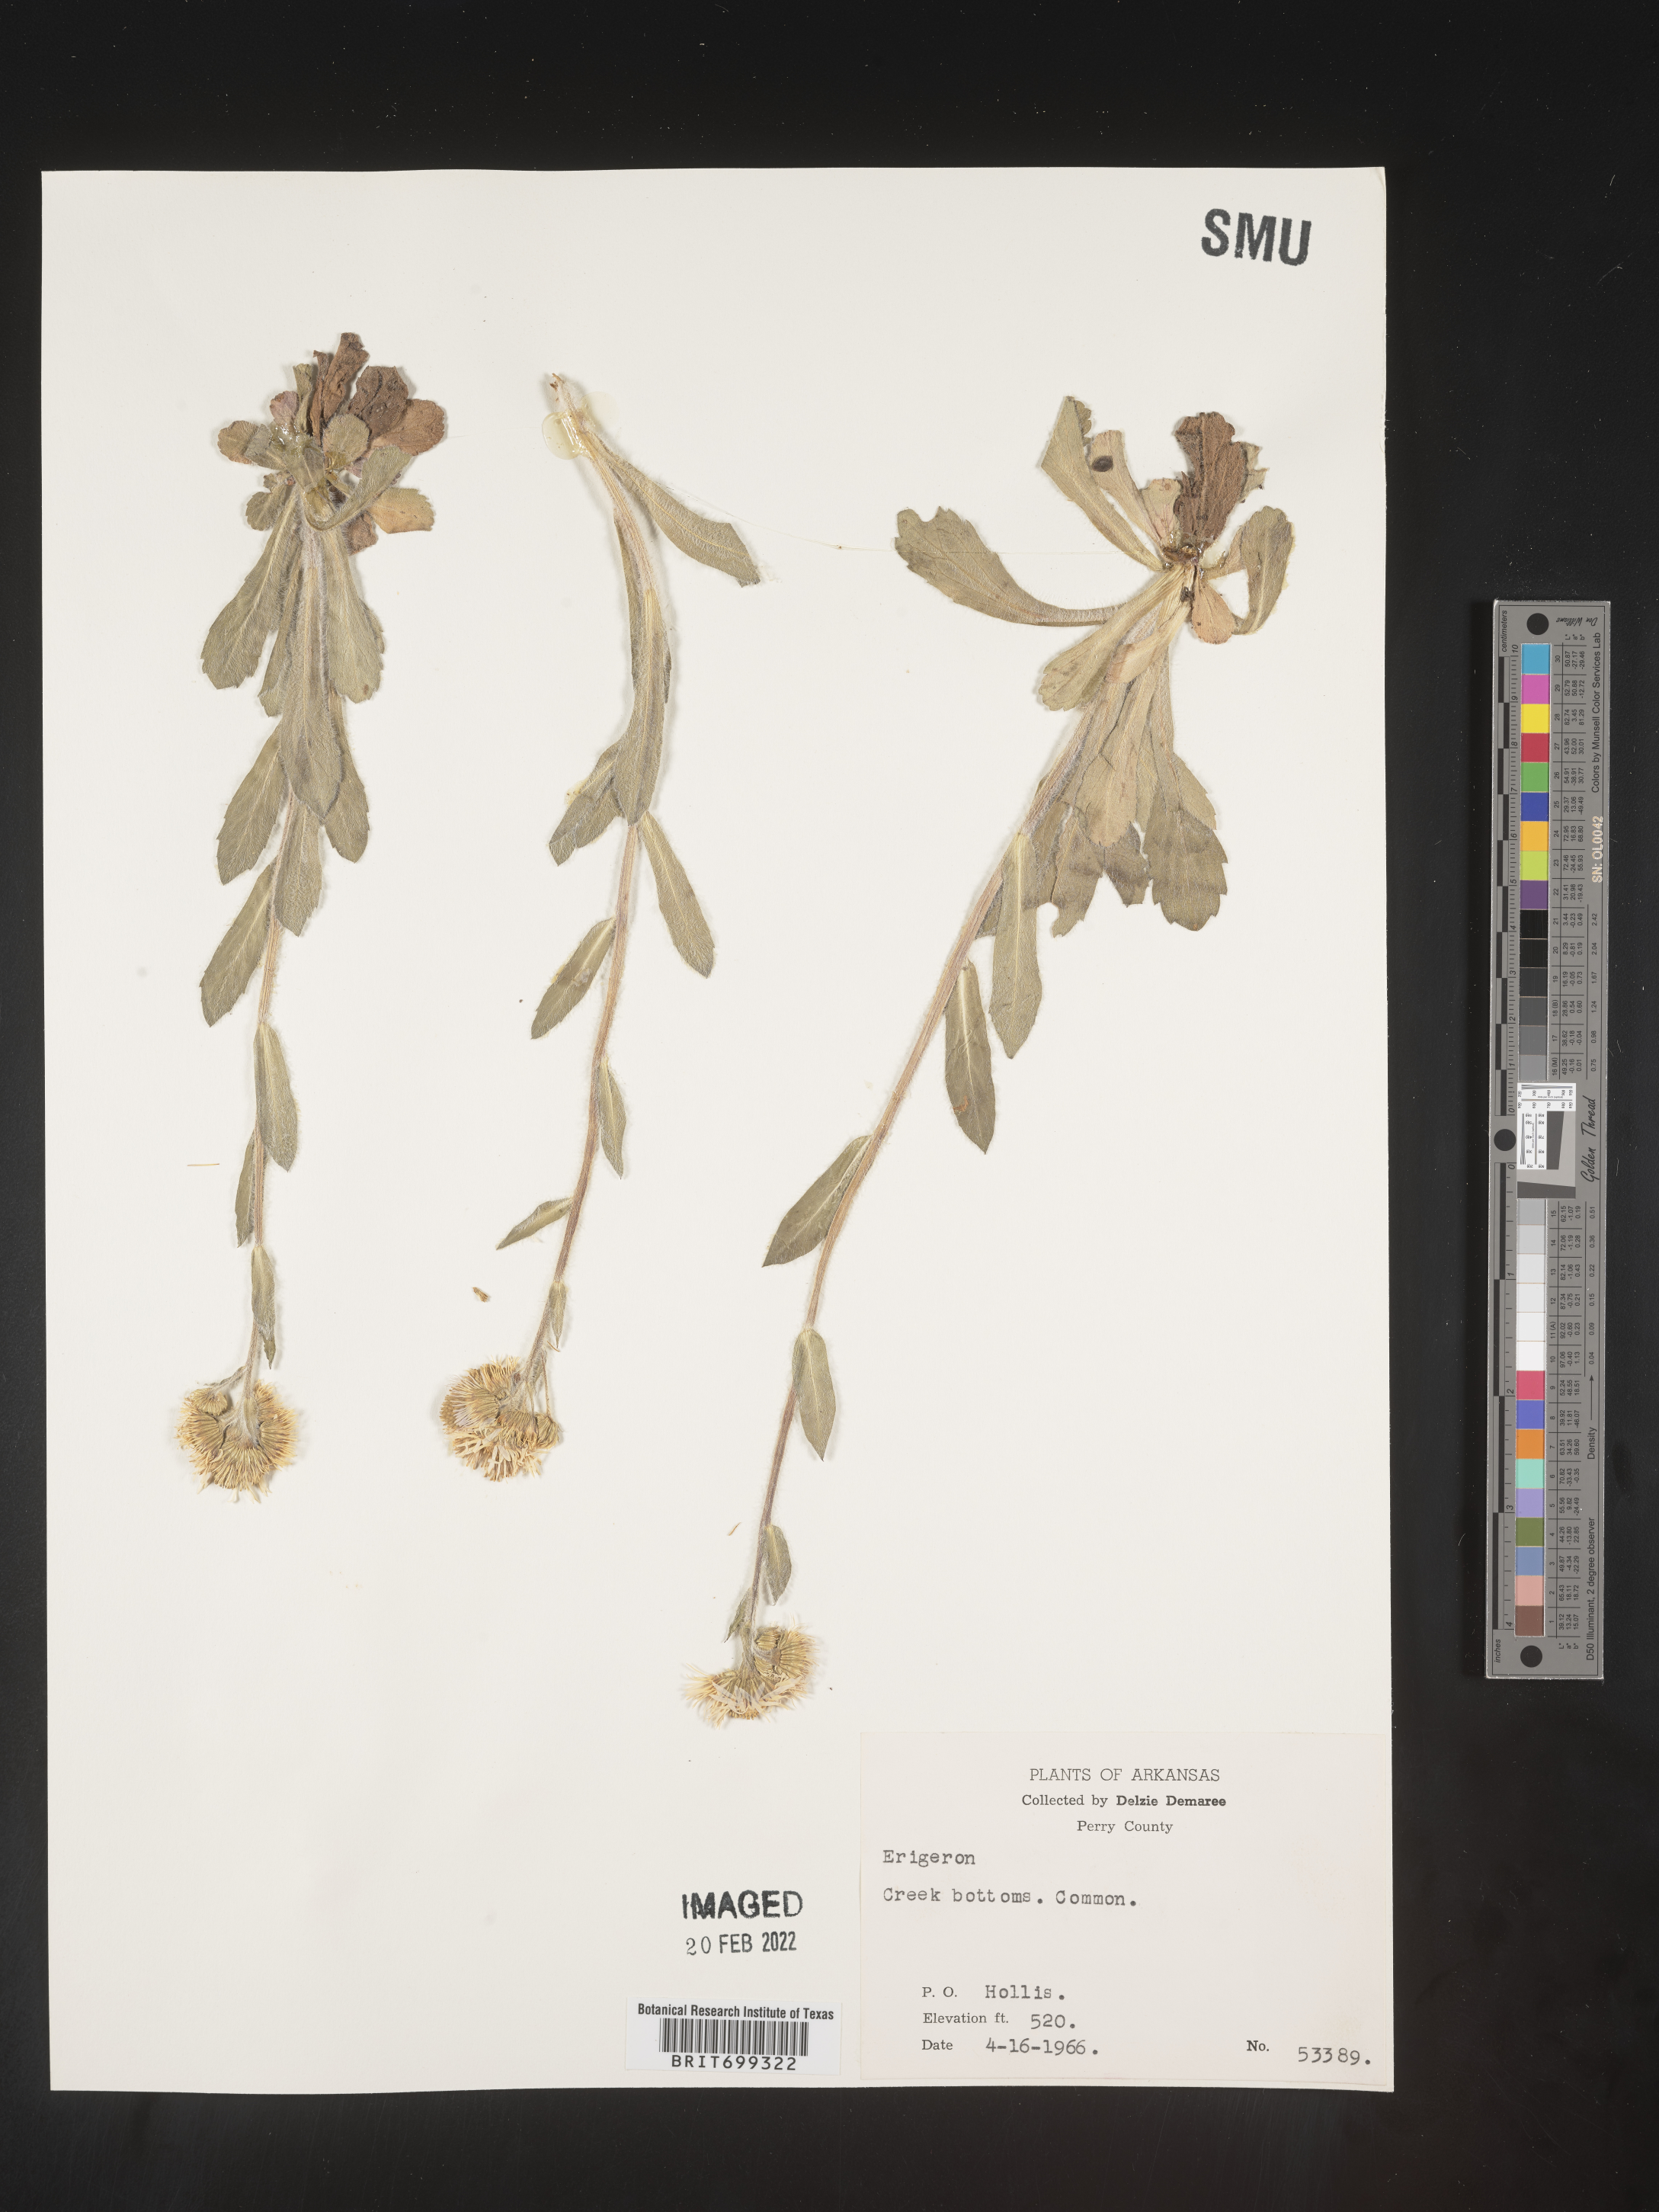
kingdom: Plantae
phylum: Tracheophyta
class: Magnoliopsida
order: Asterales
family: Asteraceae
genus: Erigeron
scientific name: Erigeron pulchellus
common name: Hairy fleabane
